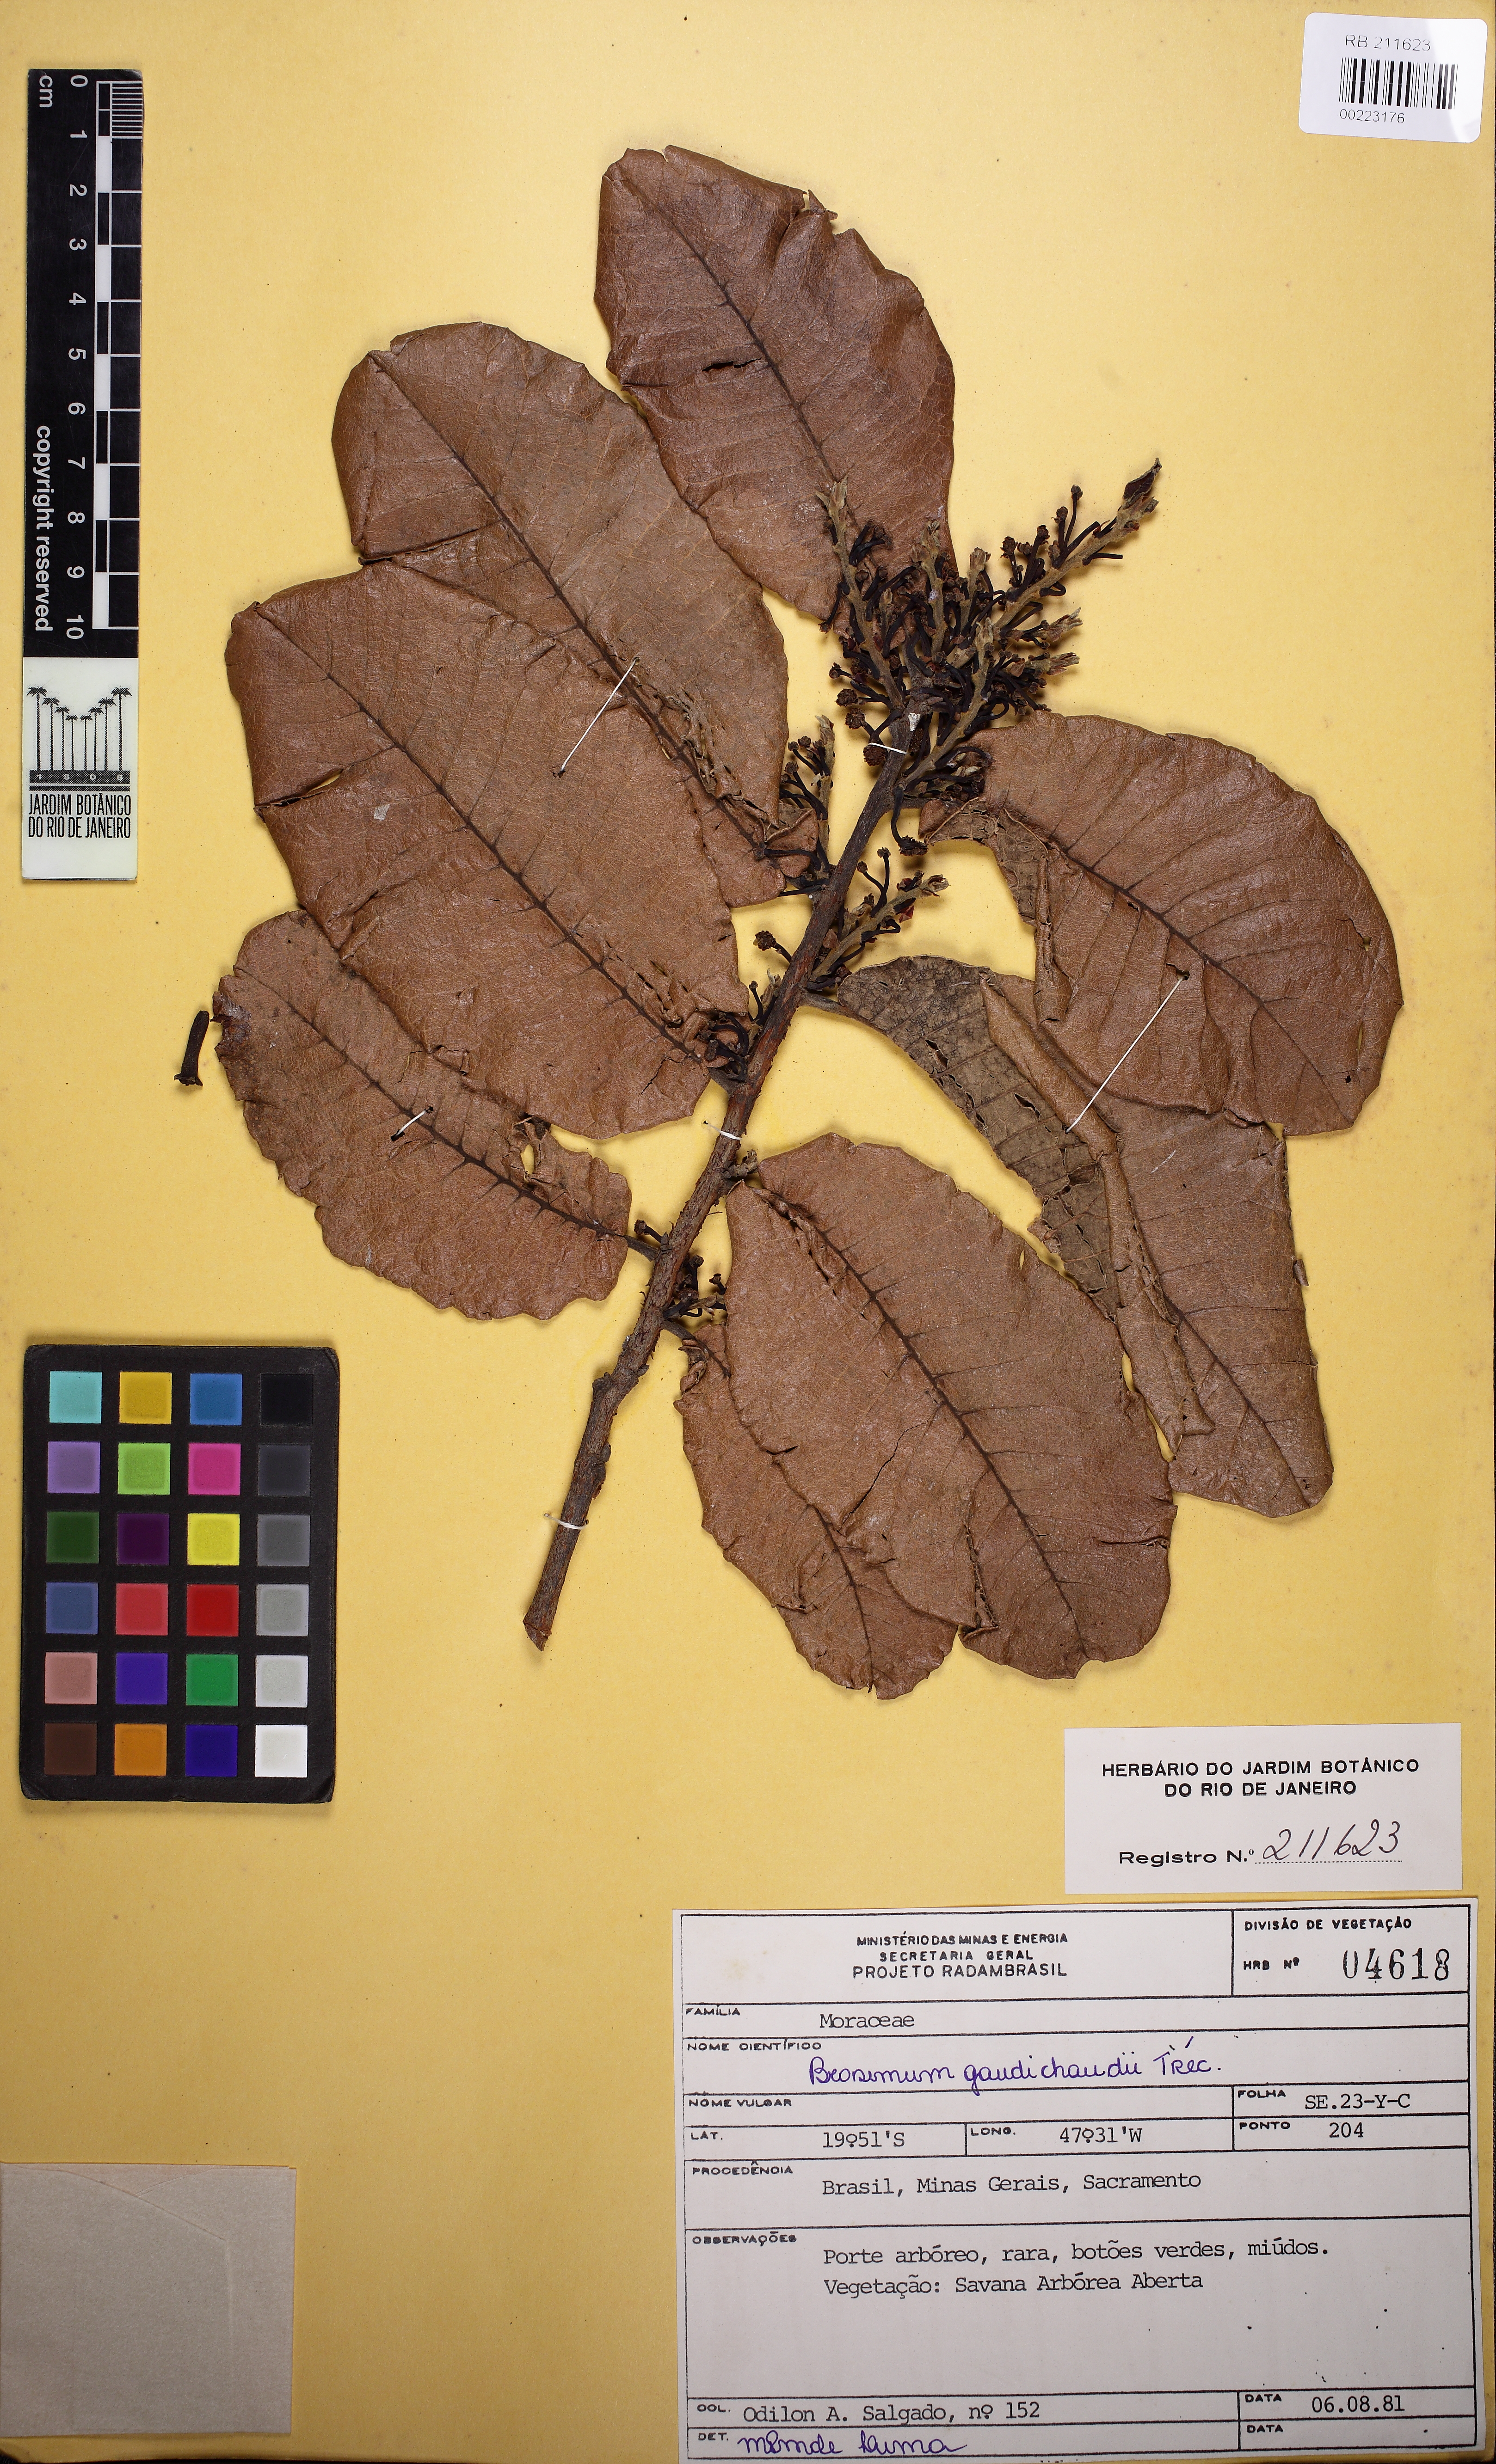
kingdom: Plantae
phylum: Tracheophyta
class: Magnoliopsida
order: Rosales
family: Moraceae
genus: Brosimum
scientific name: Brosimum gaudichaudii
